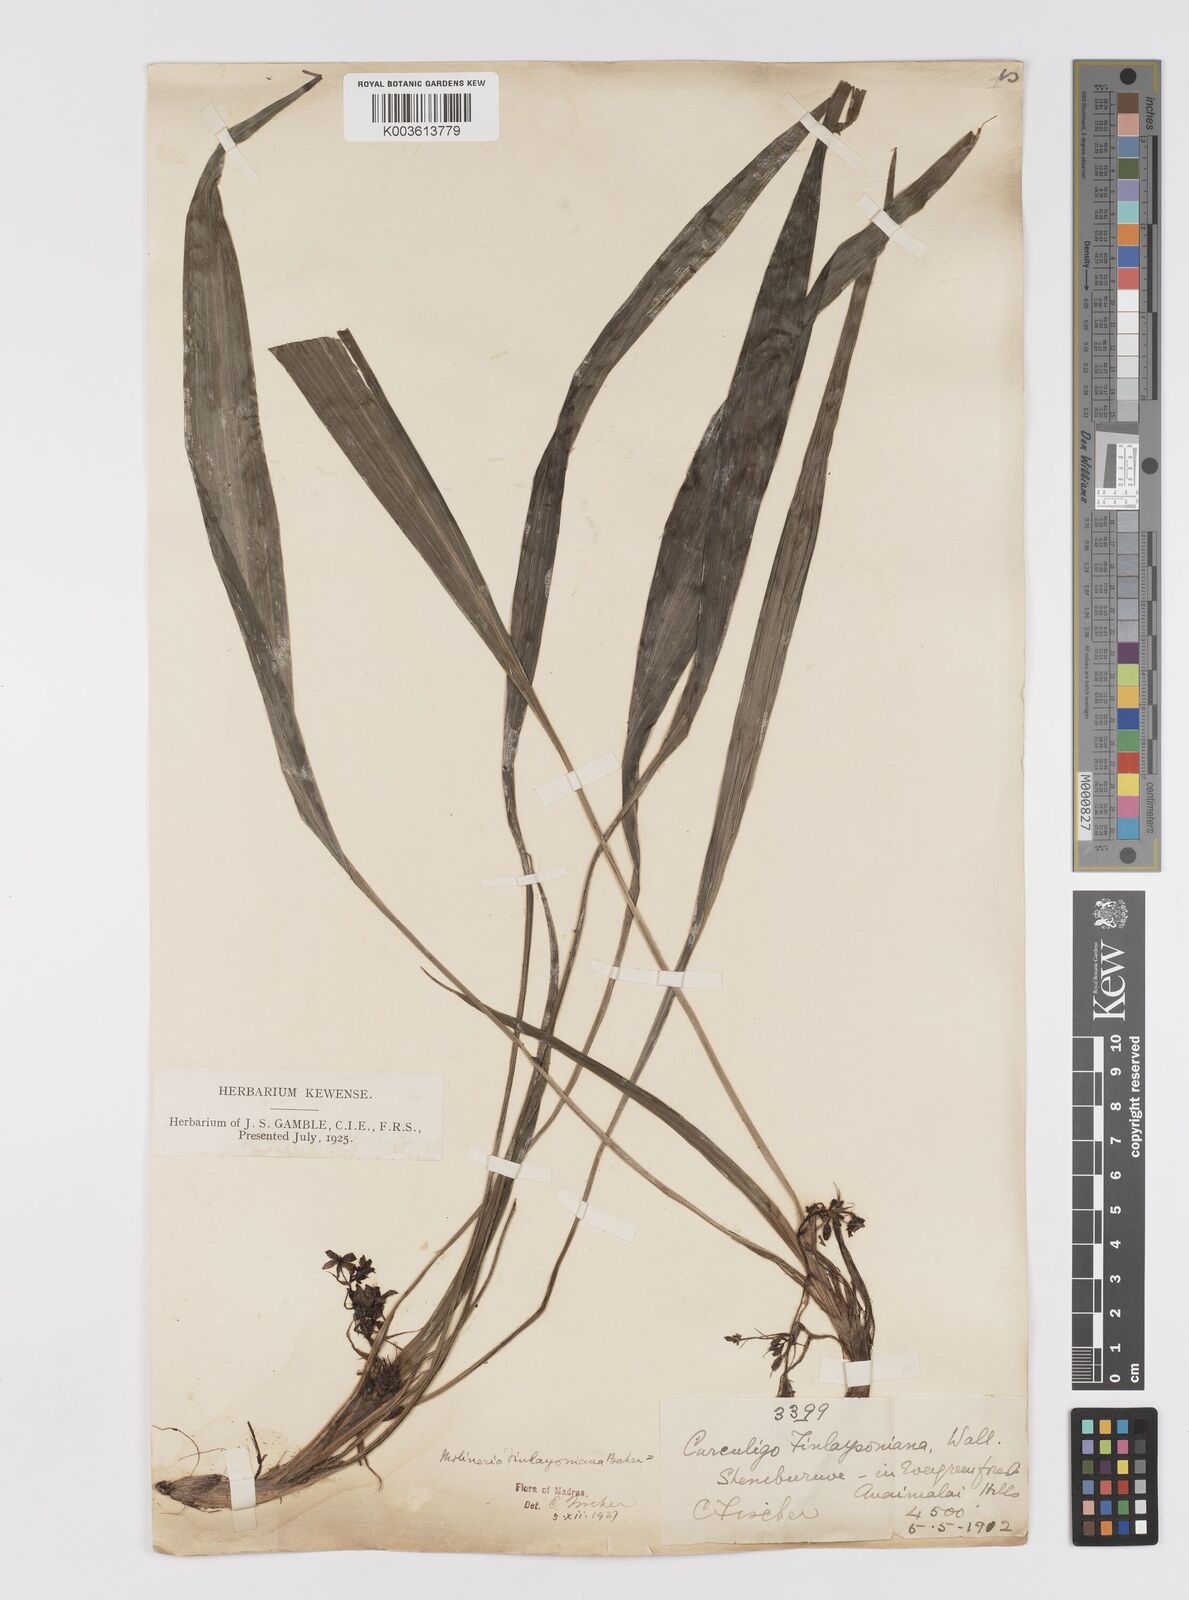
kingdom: Plantae
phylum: Tracheophyta
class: Liliopsida
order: Asparagales
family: Hypoxidaceae
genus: Curculigo
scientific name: Curculigo trichocarpa
